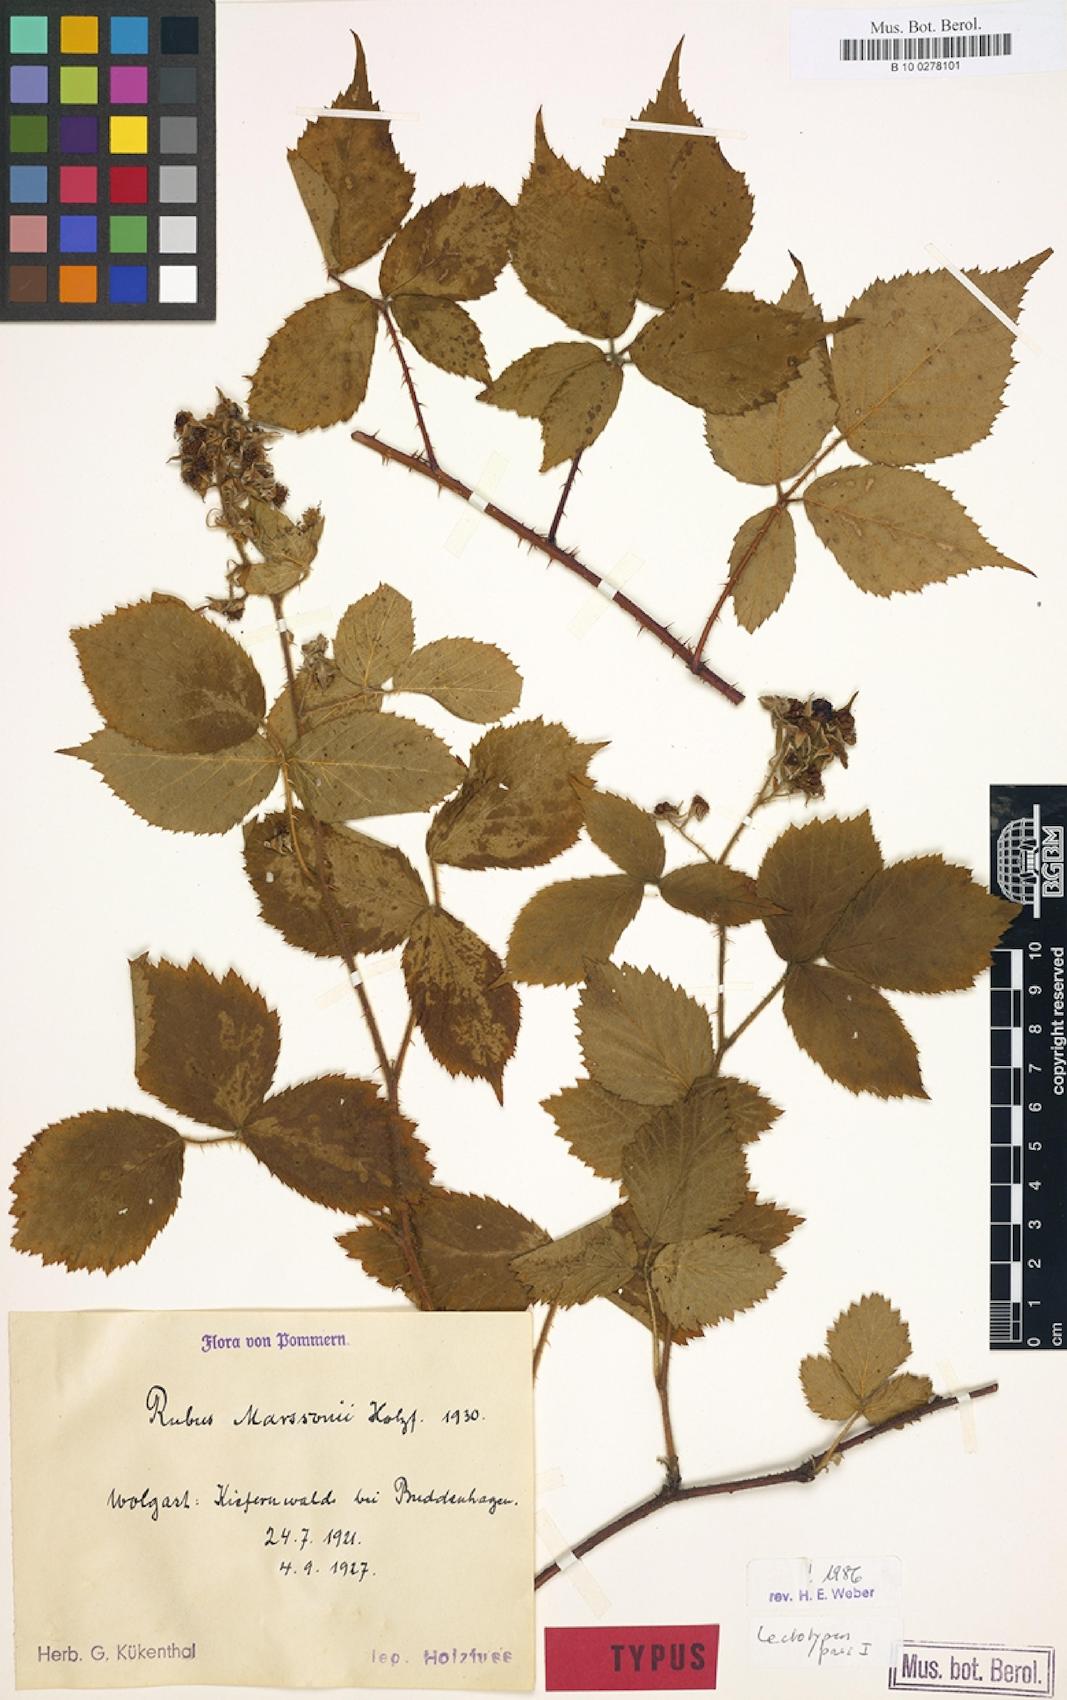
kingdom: Plantae
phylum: Tracheophyta
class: Magnoliopsida
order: Rosales
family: Rosaceae
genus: Rubus
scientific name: Rubus umbrosus
